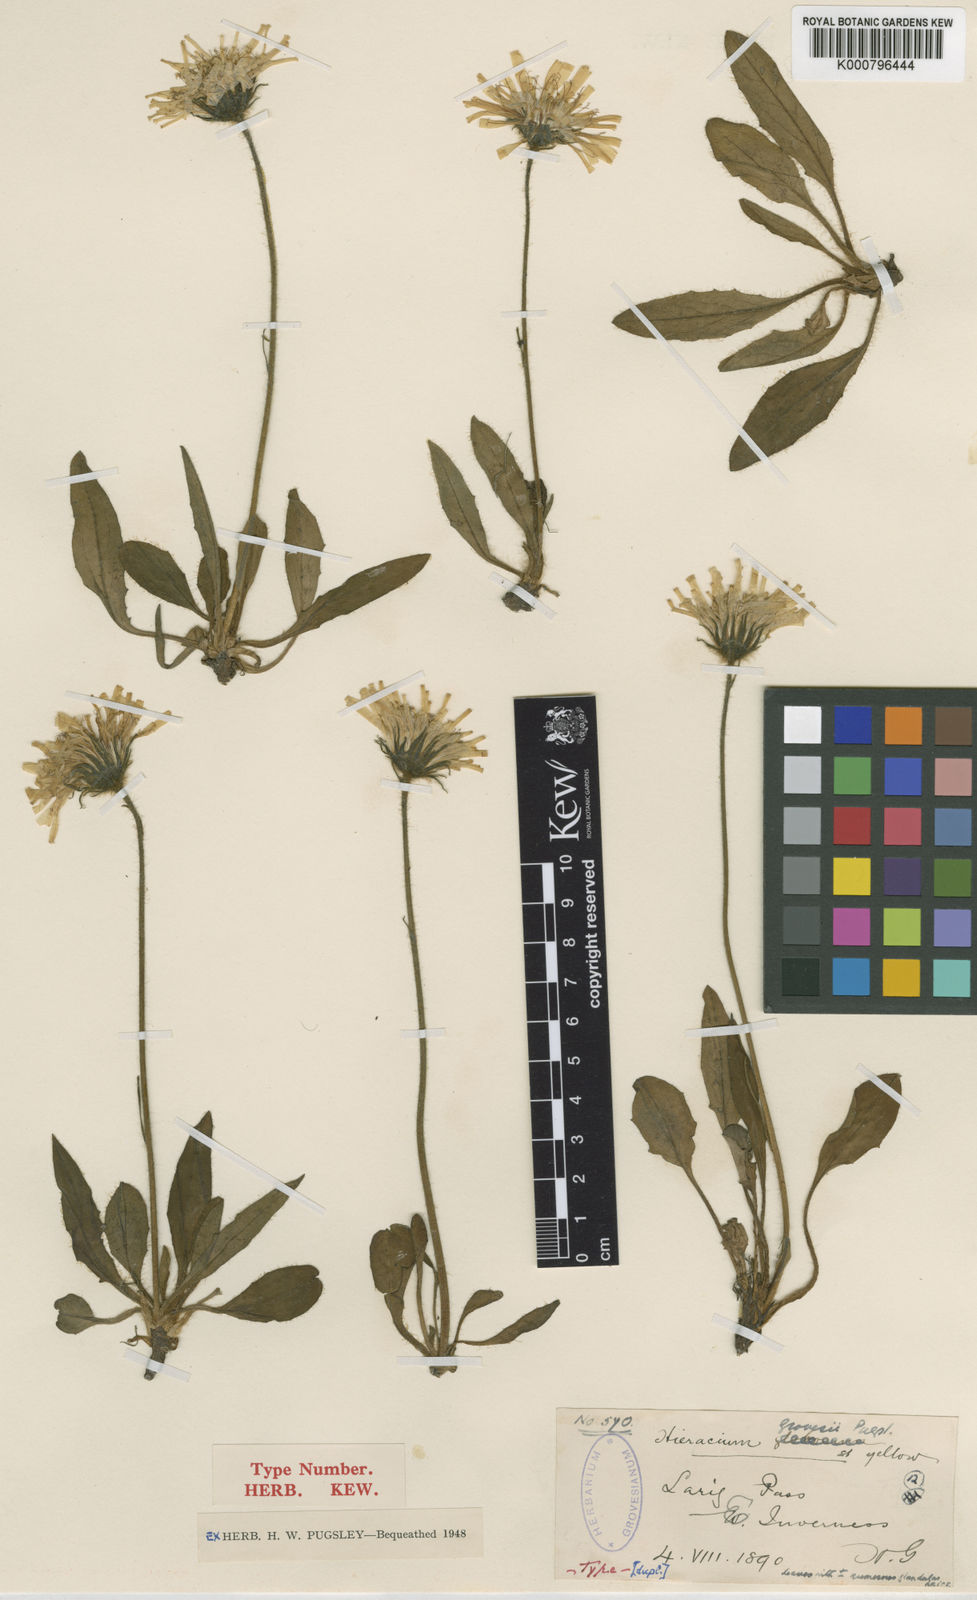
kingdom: Plantae
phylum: Tracheophyta
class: Magnoliopsida
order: Asterales
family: Asteraceae
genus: Hieracium
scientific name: Hieracium grovesii
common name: Grove's hawkweed
